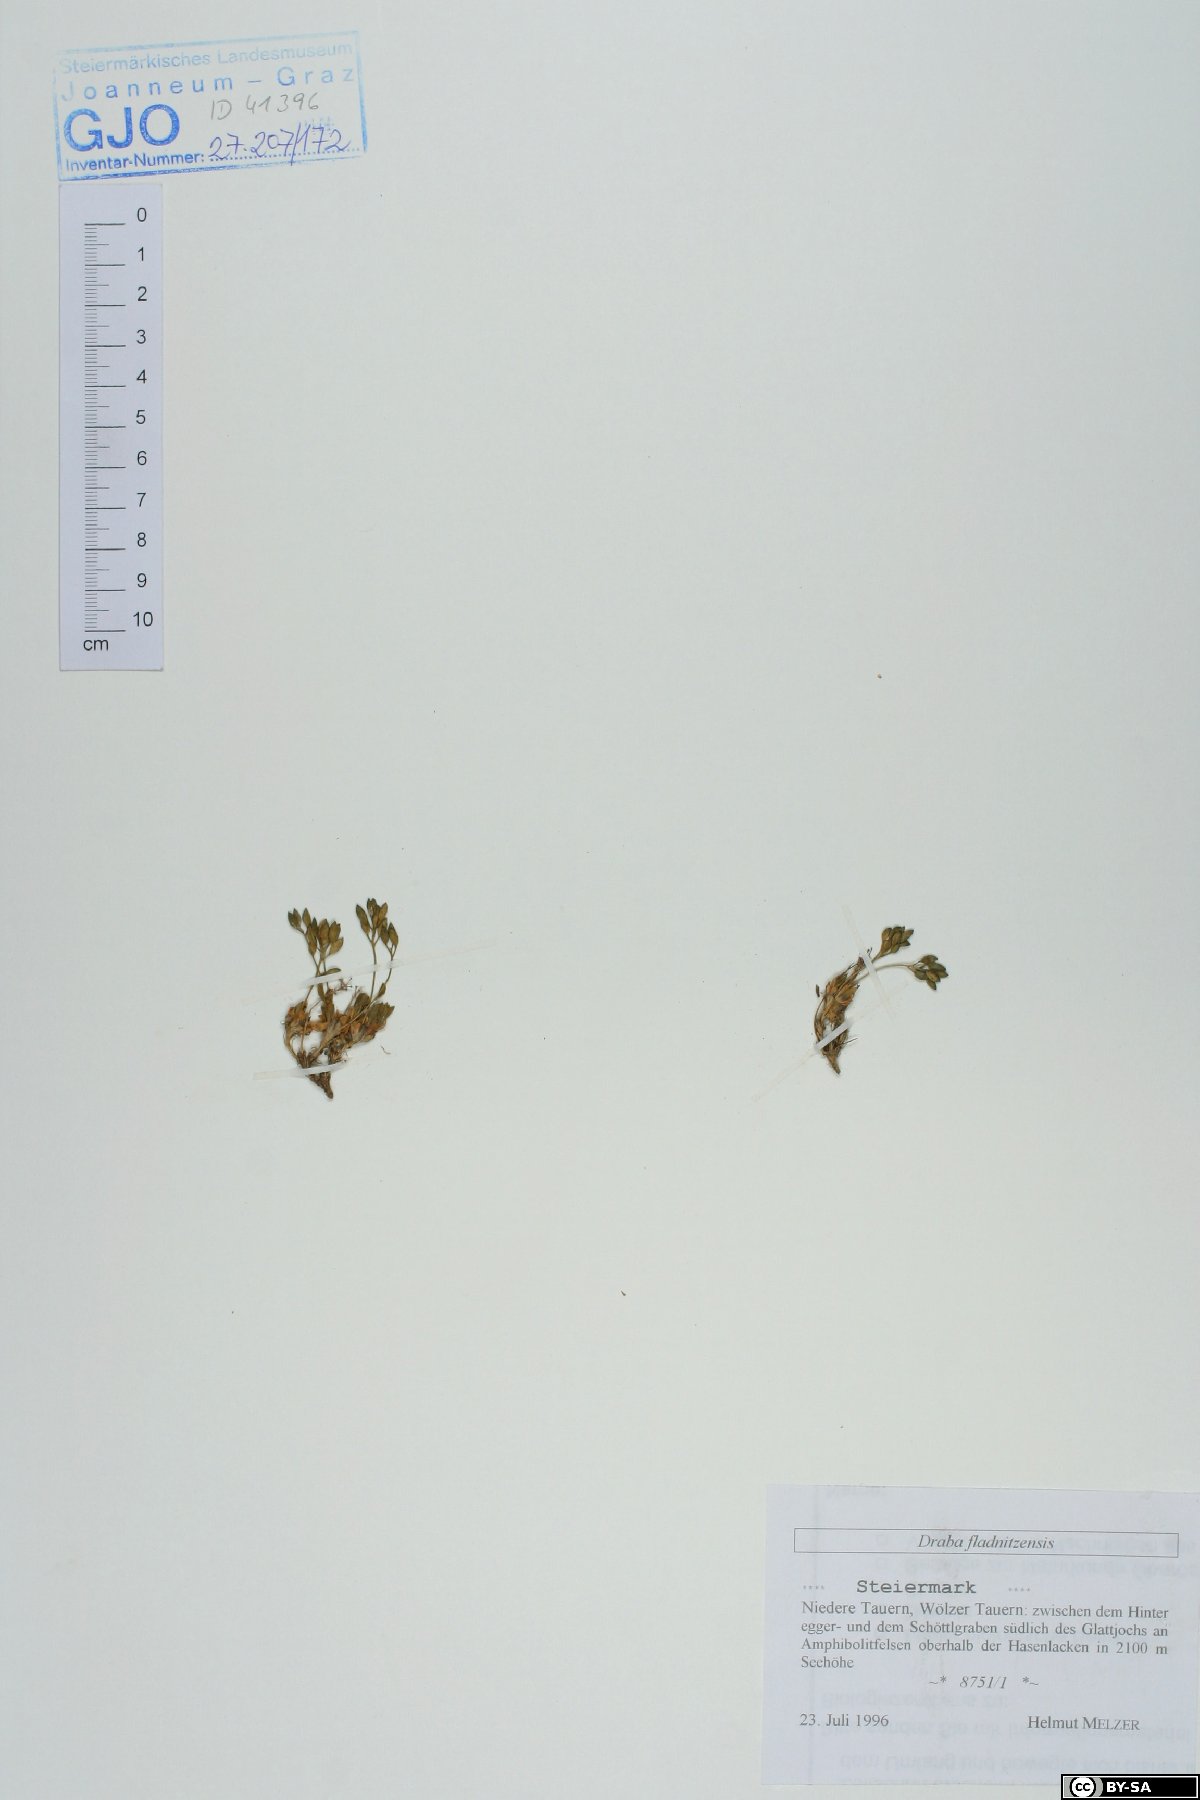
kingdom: Plantae
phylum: Tracheophyta
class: Magnoliopsida
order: Brassicales
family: Brassicaceae
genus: Draba
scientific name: Draba fladnizensis
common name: Austrian draba
